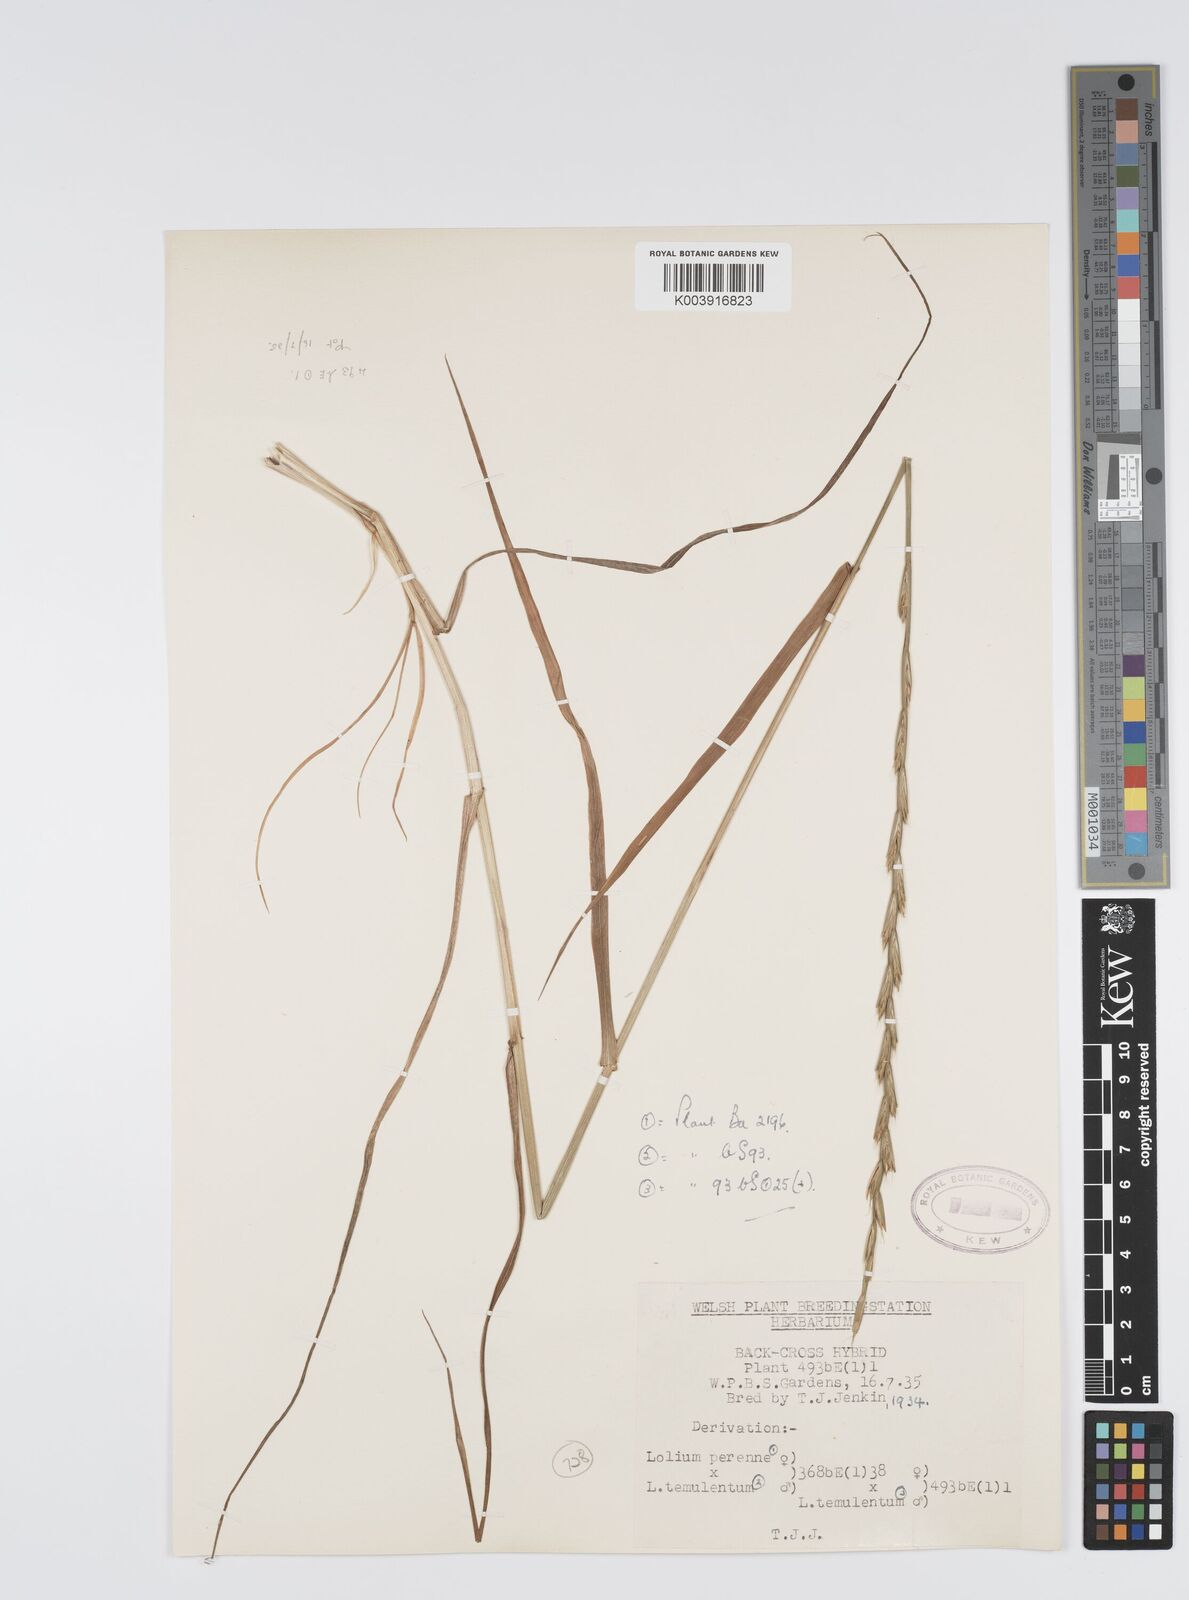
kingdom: Plantae
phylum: Tracheophyta
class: Liliopsida
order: Poales
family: Poaceae
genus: Lolium
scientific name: Lolium perenne
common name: Perennial ryegrass
